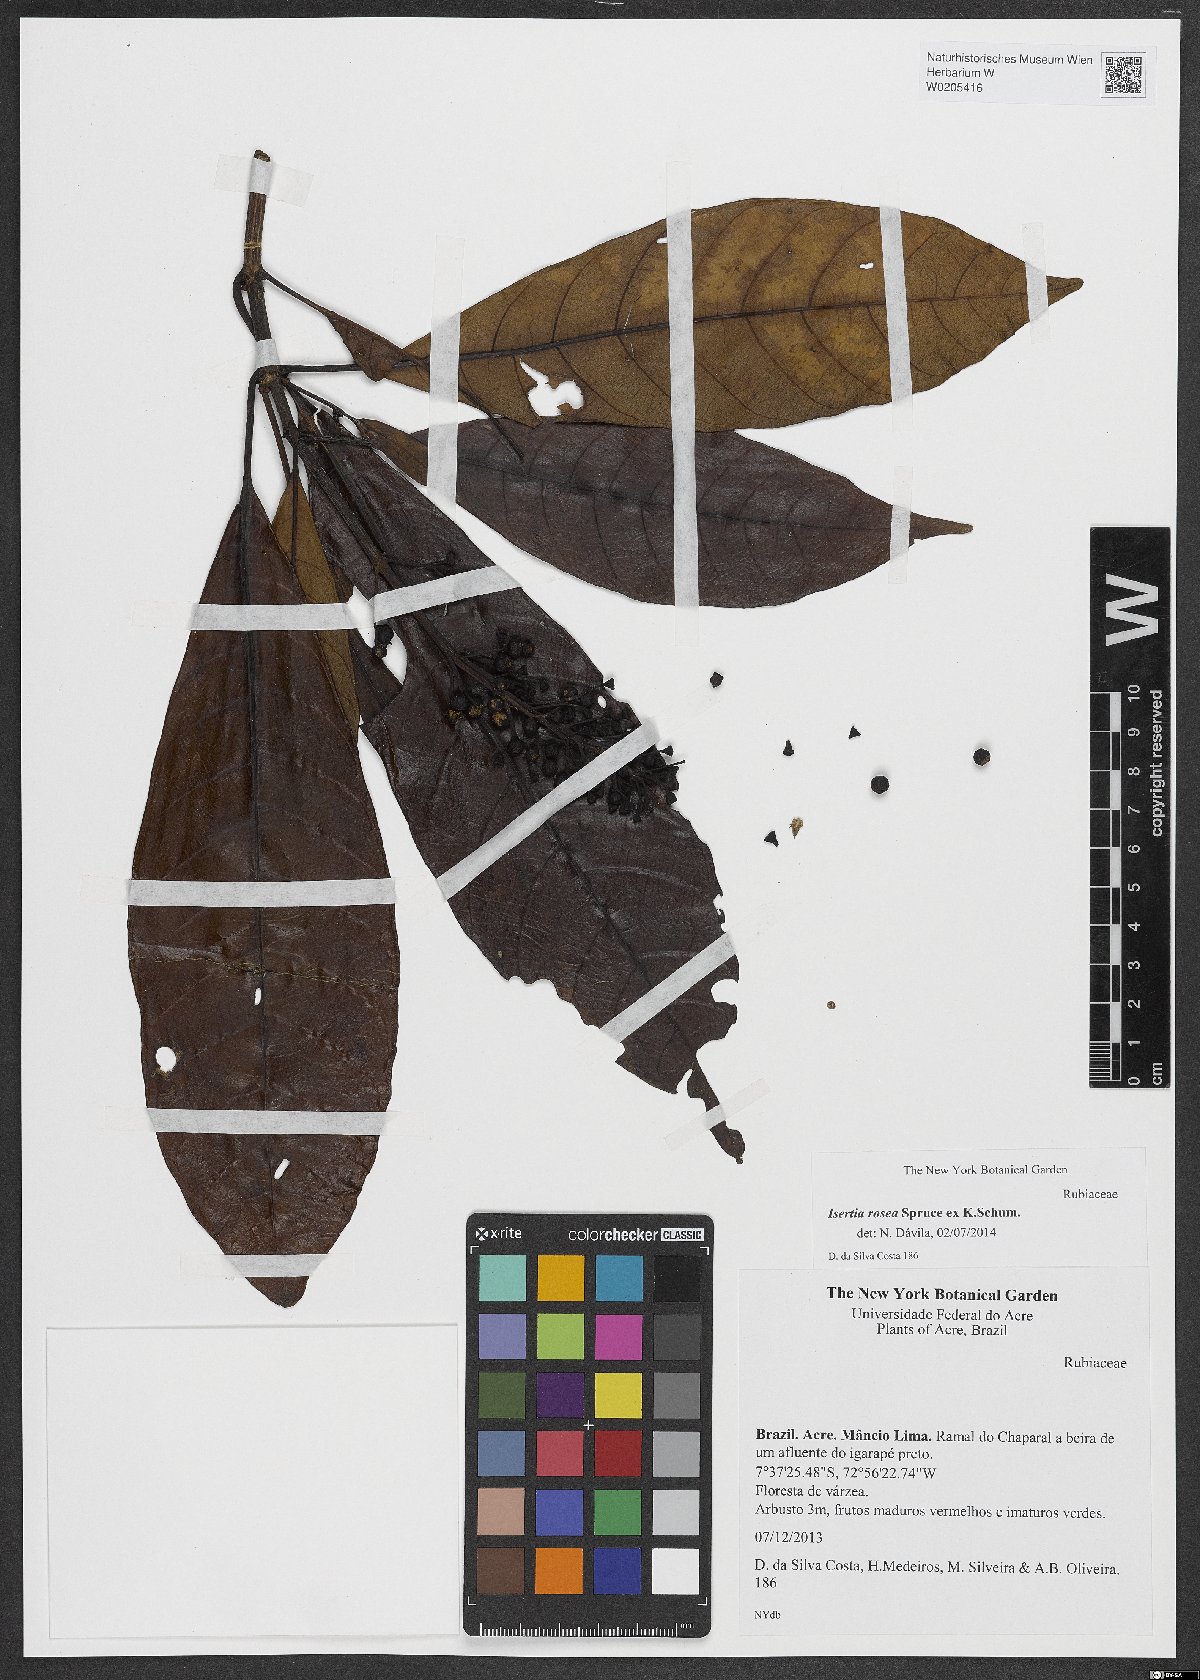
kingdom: Plantae
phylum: Tracheophyta
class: Magnoliopsida
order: Gentianales
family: Rubiaceae
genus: Isertia
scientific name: Isertia rosea
